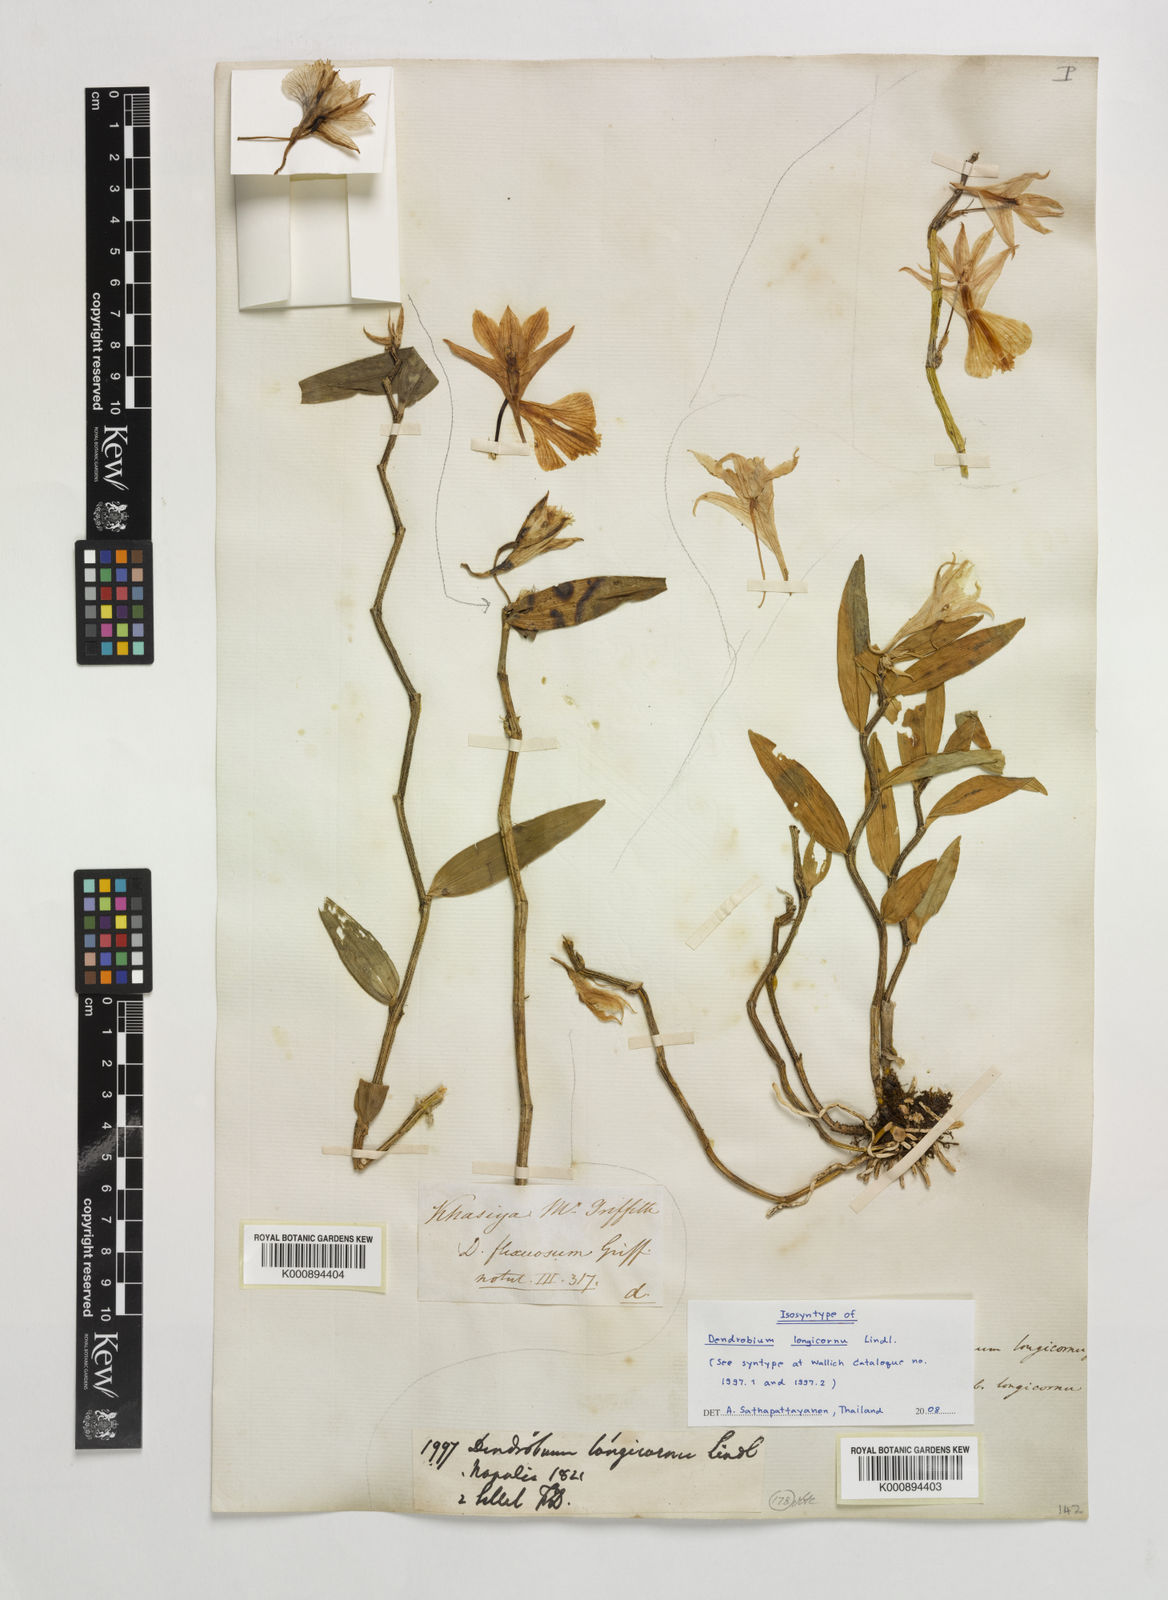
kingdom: Plantae
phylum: Tracheophyta
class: Liliopsida
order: Asparagales
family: Orchidaceae
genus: Dendrobium
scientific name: Dendrobium longicornu
